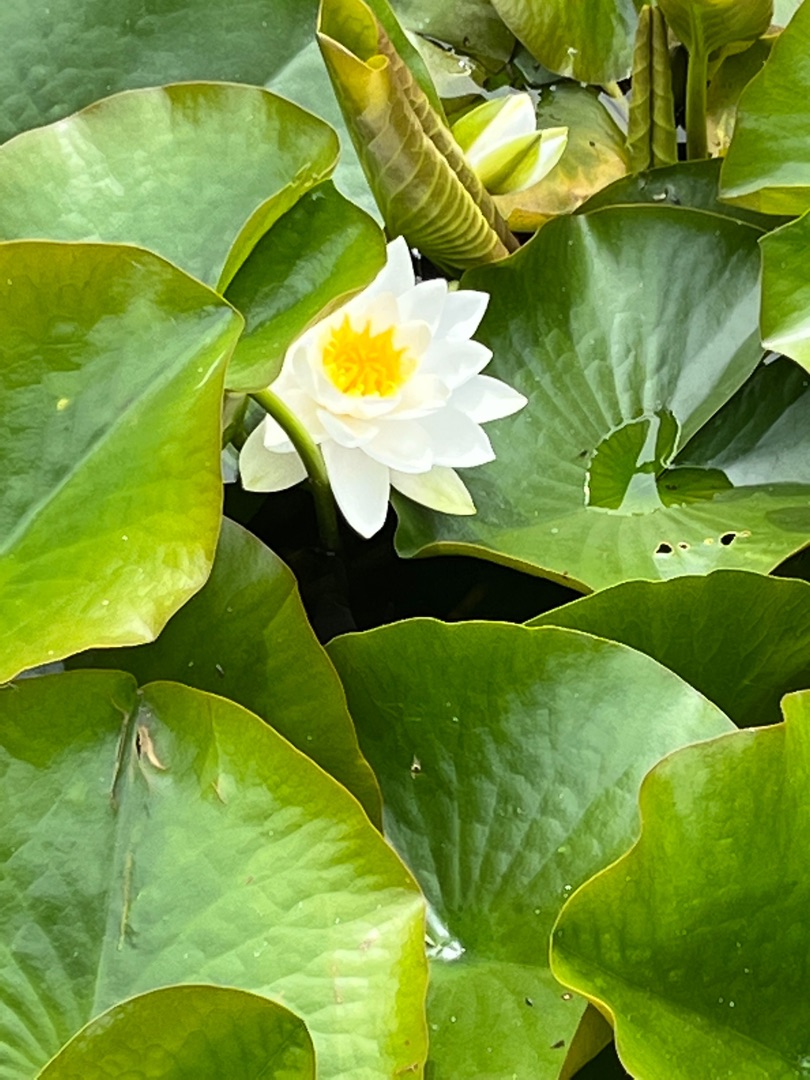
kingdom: Plantae
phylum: Tracheophyta
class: Magnoliopsida
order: Nymphaeales
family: Nymphaeaceae
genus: Nymphaea
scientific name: Nymphaea alba
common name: Hvid åkande
